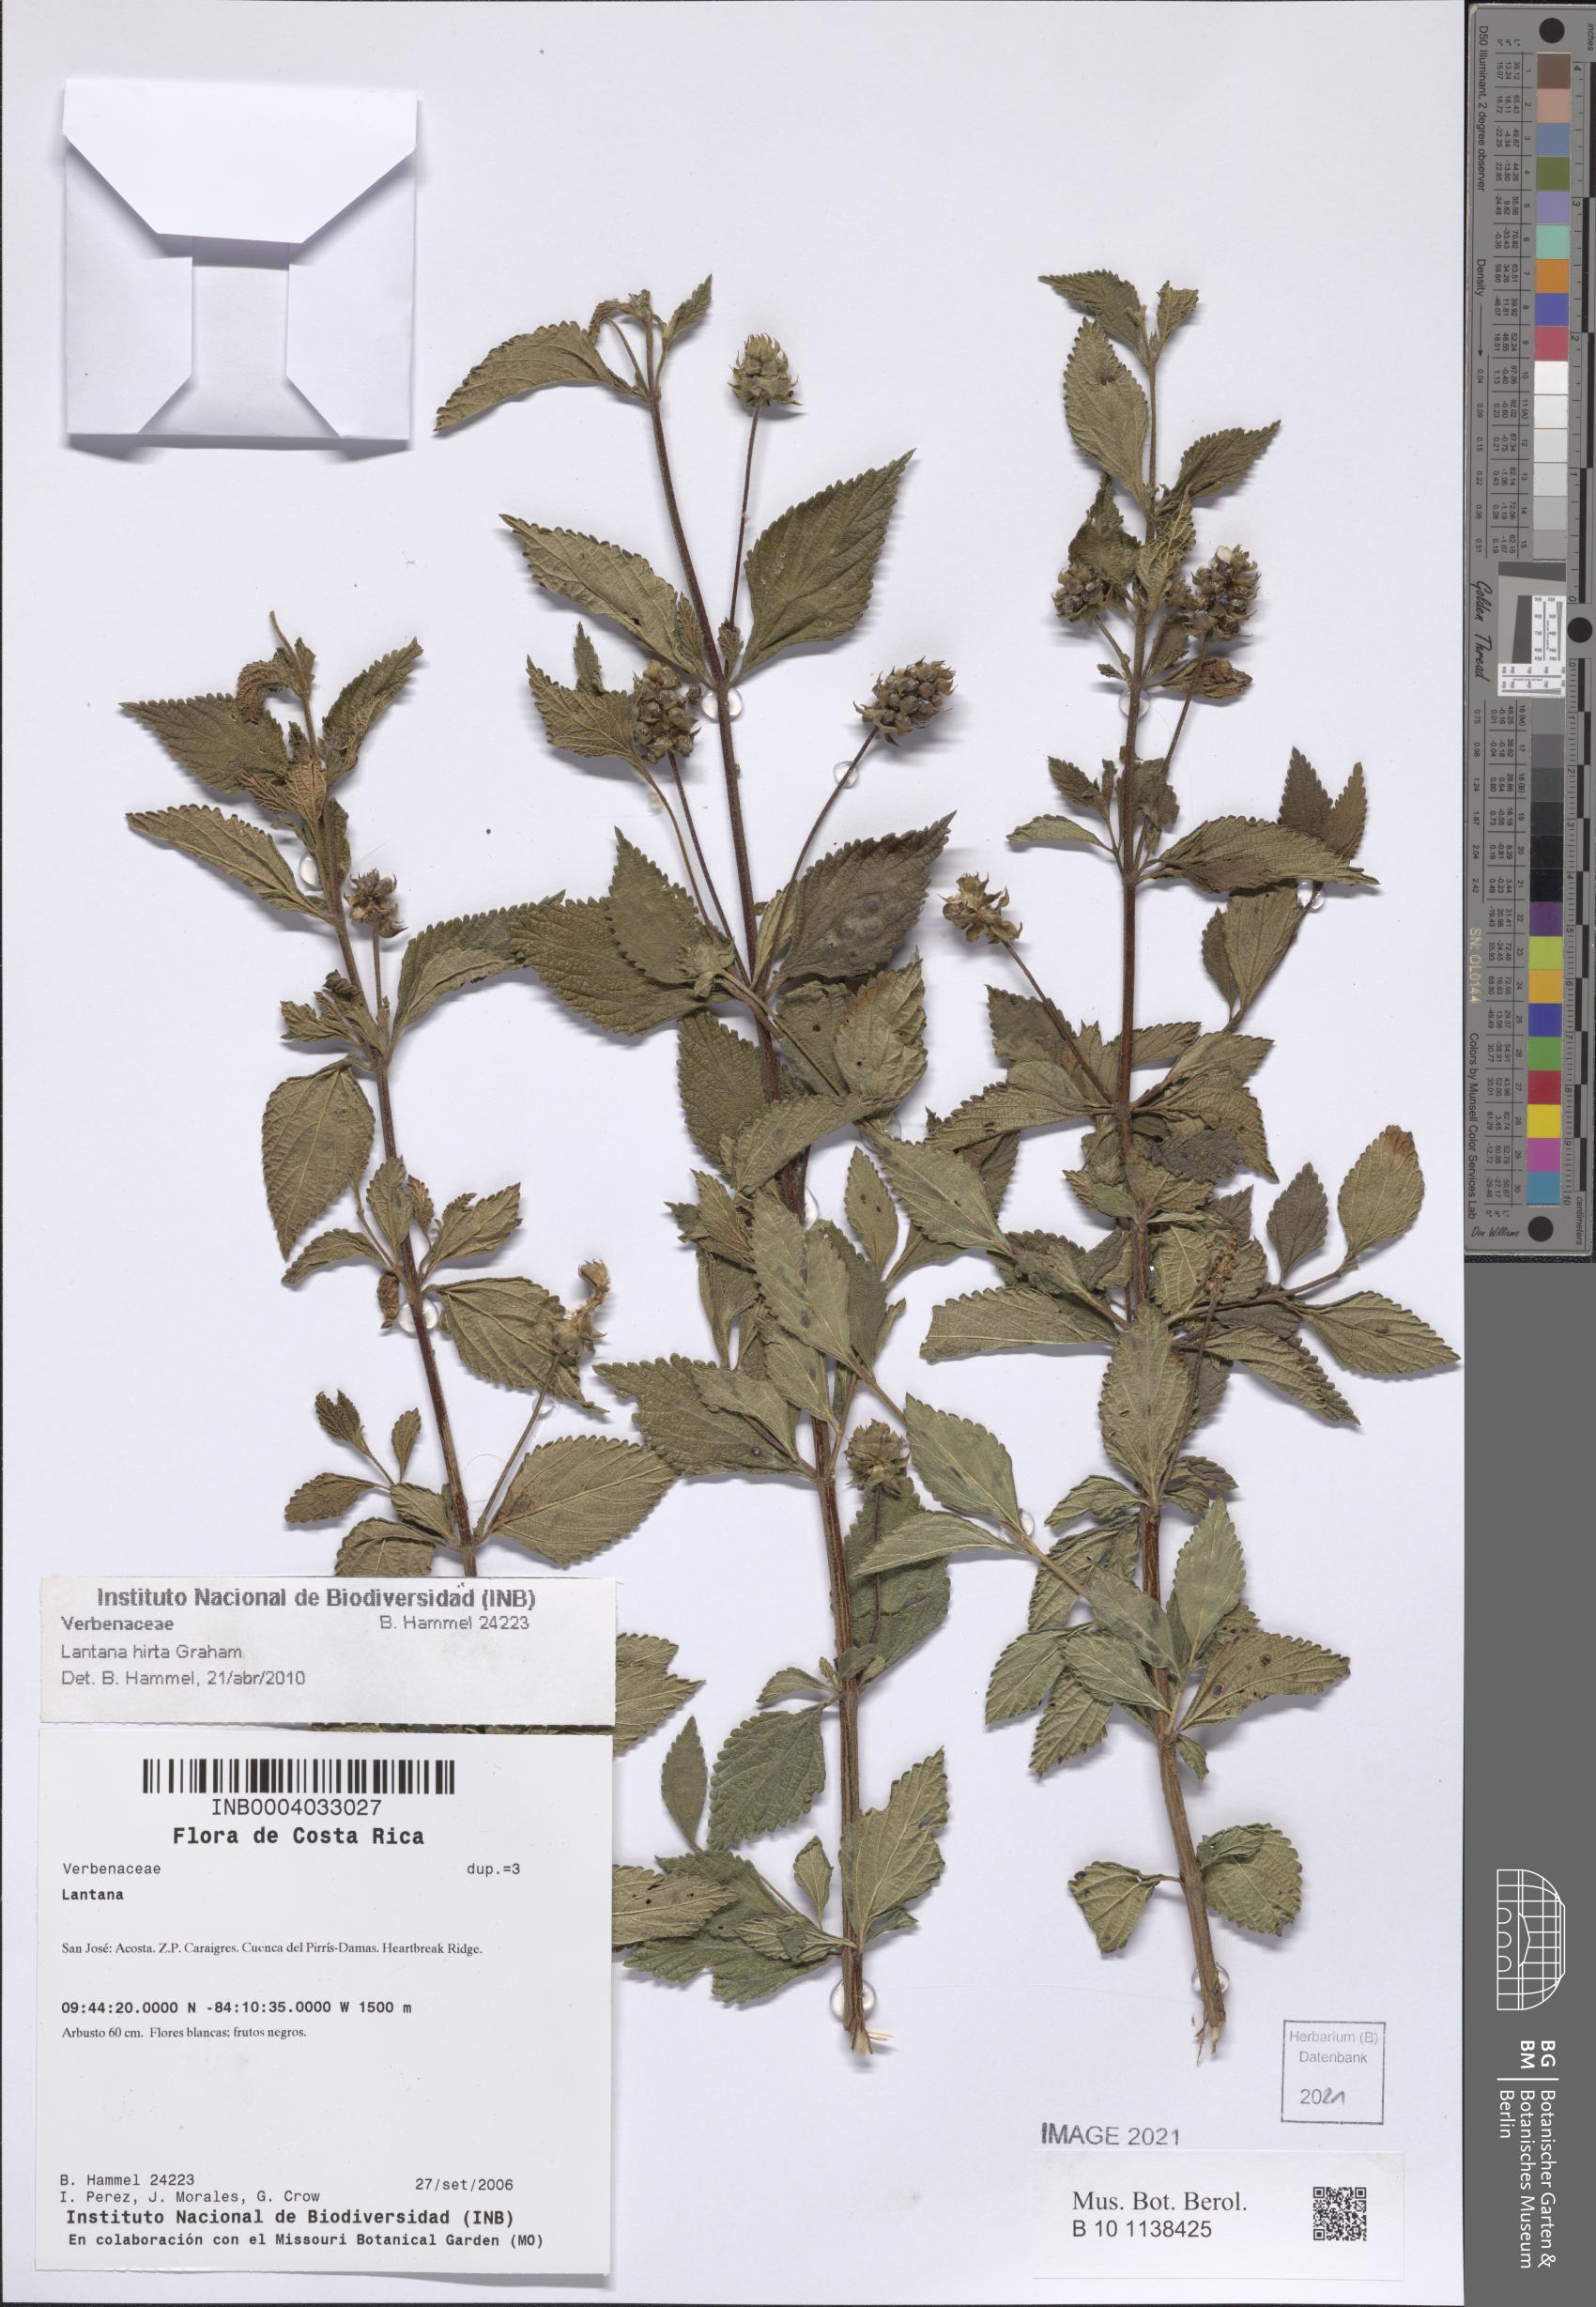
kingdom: Plantae
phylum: Tracheophyta
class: Magnoliopsida
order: Lamiales
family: Verbenaceae
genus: Lantana
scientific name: Lantana hirta
